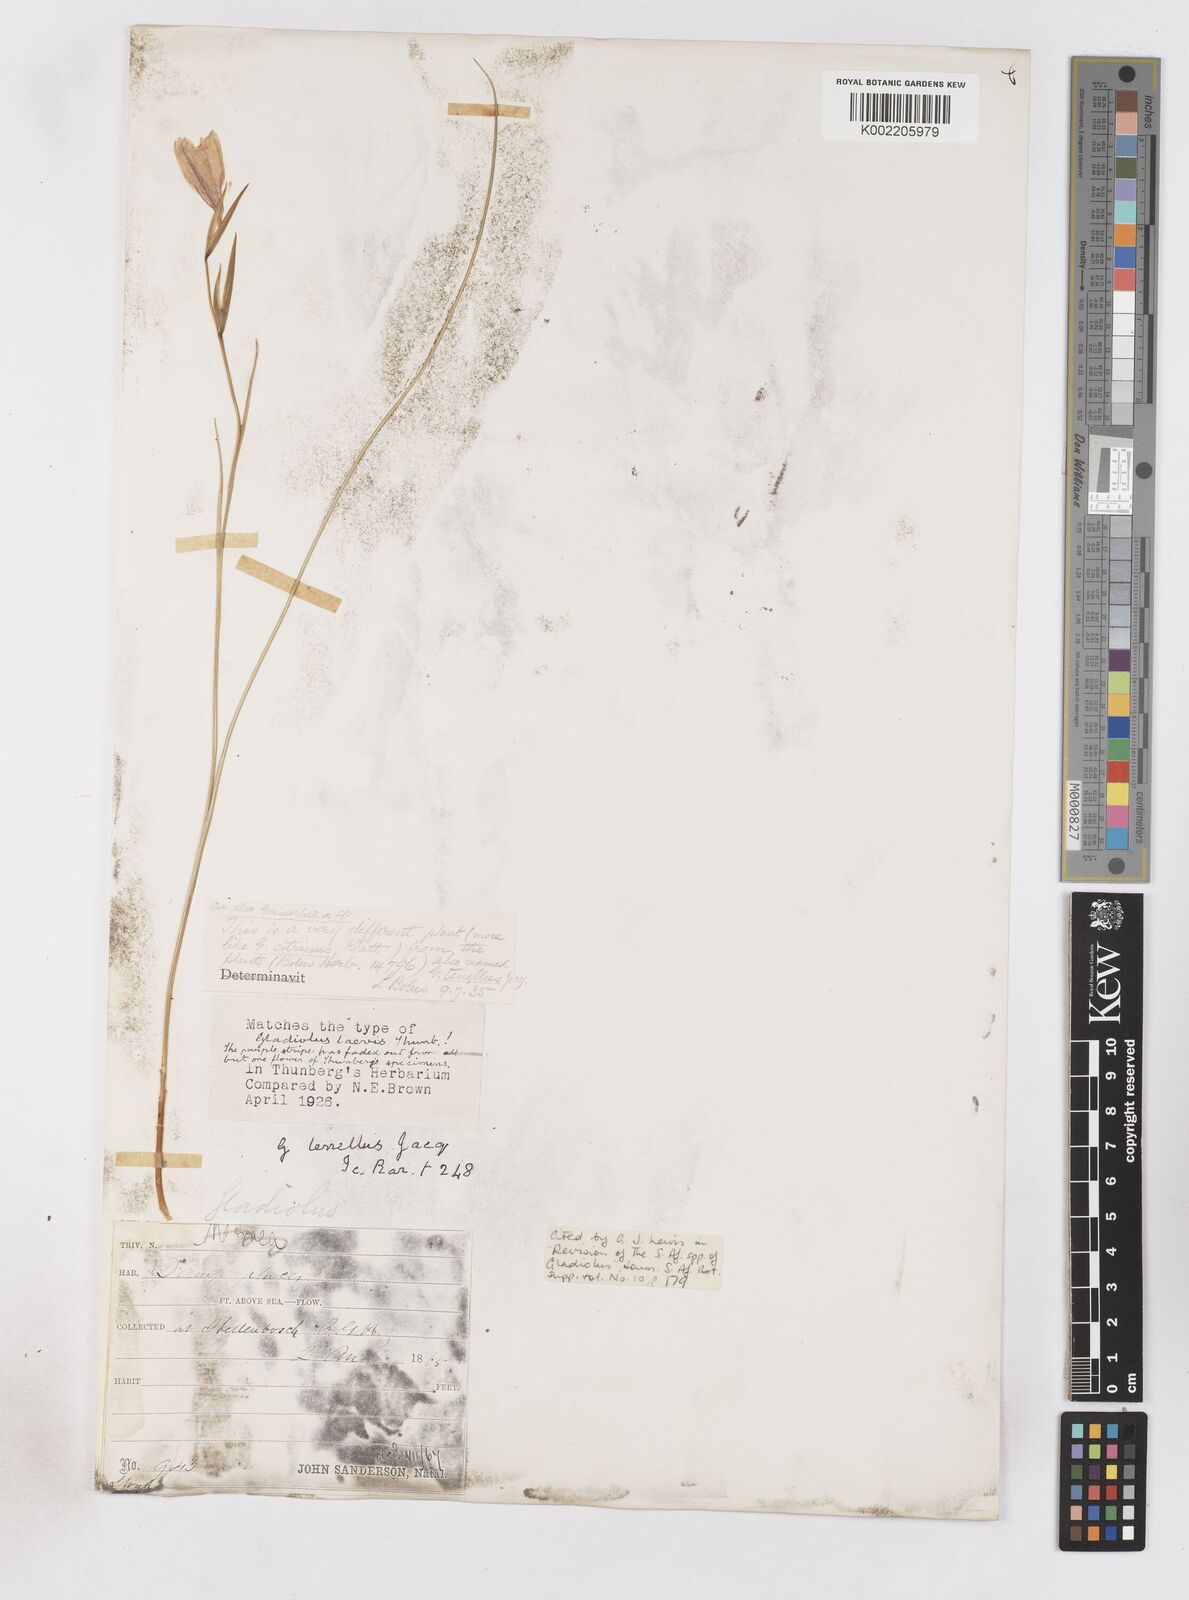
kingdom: Plantae
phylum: Tracheophyta
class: Liliopsida
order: Asparagales
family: Iridaceae
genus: Gladiolus
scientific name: Gladiolus carinatus
